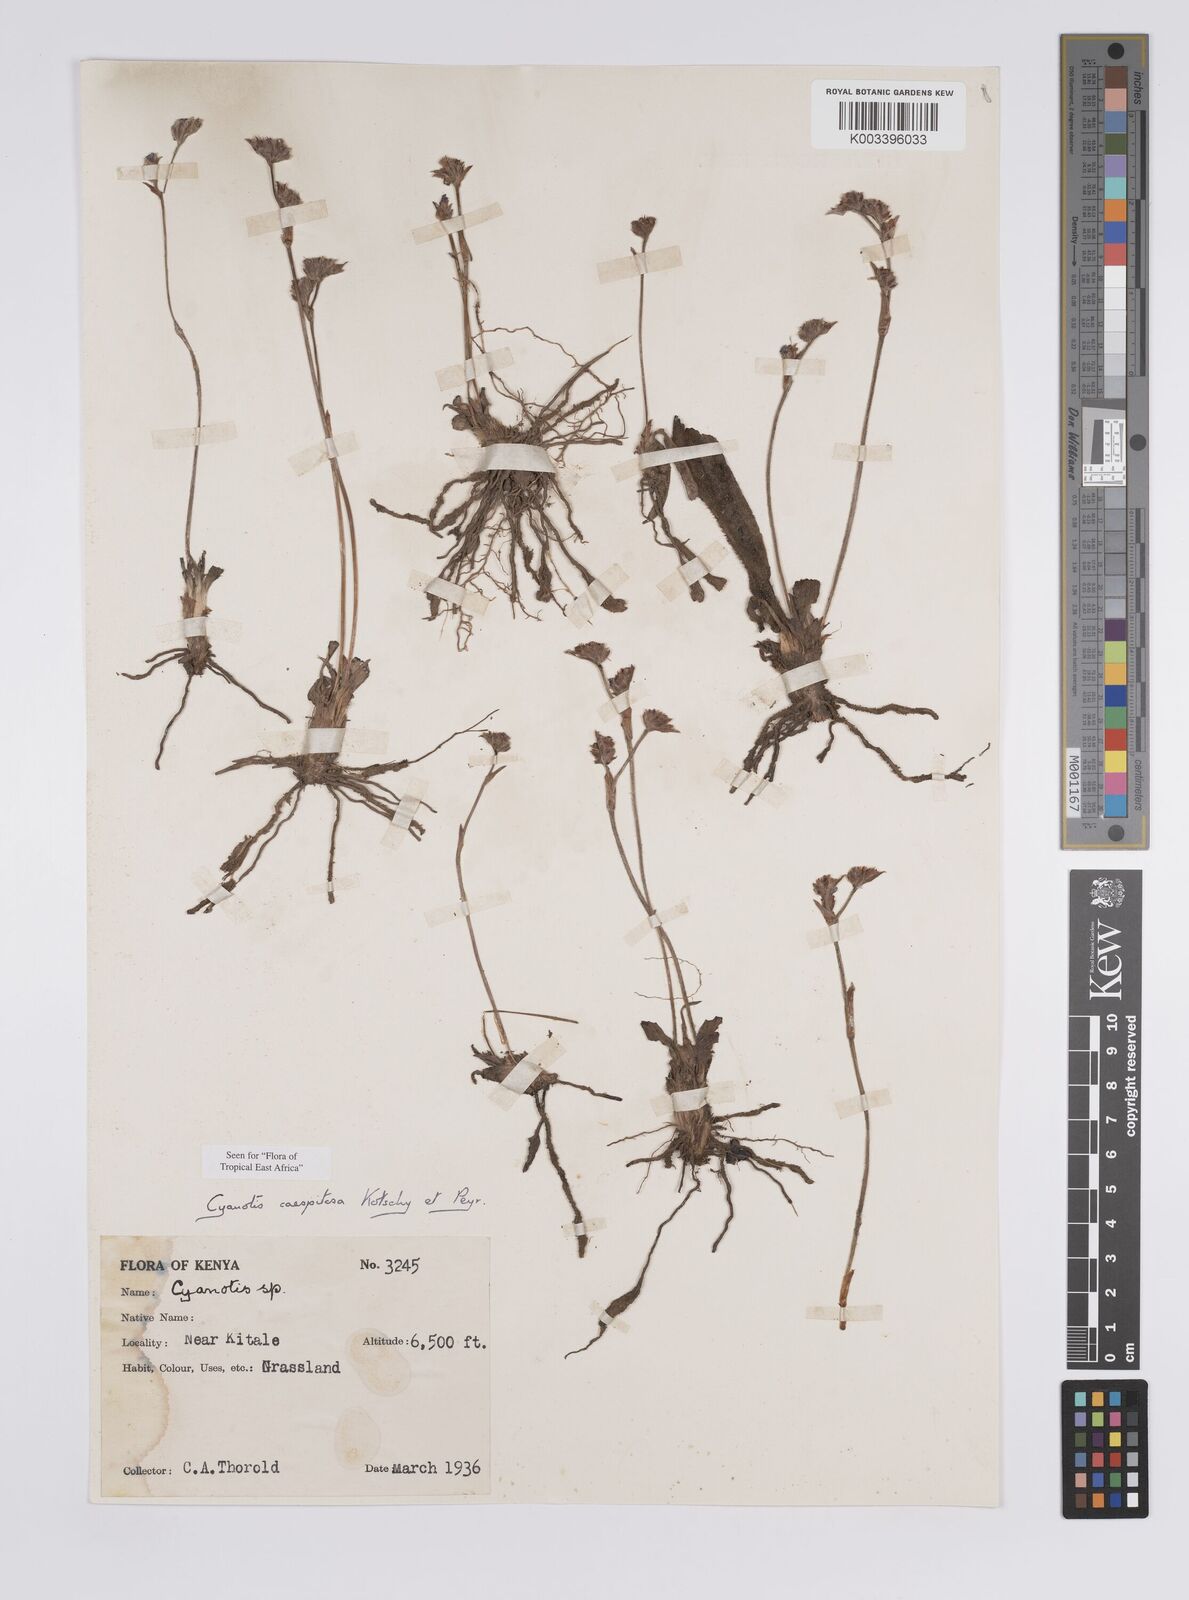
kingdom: Plantae
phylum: Tracheophyta
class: Liliopsida
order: Commelinales
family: Commelinaceae
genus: Cyanotis
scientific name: Cyanotis caespitosa
